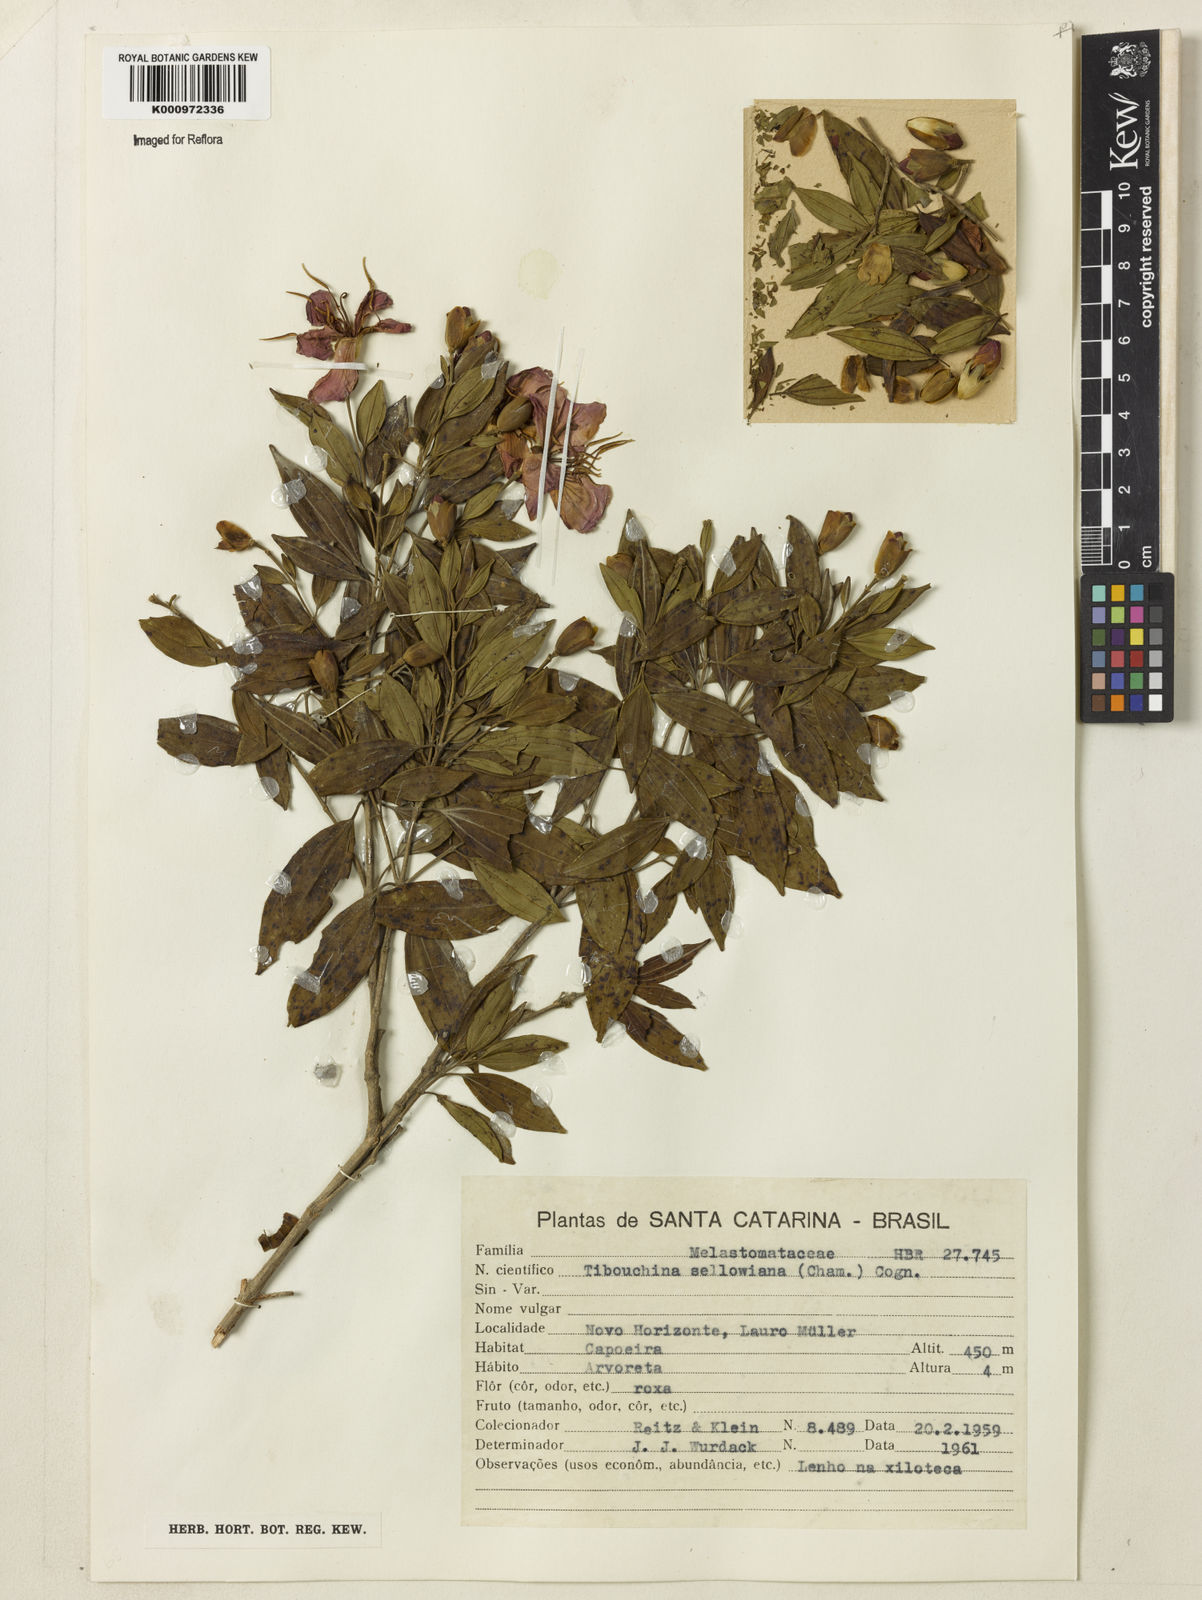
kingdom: Plantae
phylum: Tracheophyta
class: Magnoliopsida
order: Myrtales
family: Melastomataceae
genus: Pleroma
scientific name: Pleroma sellowianum
